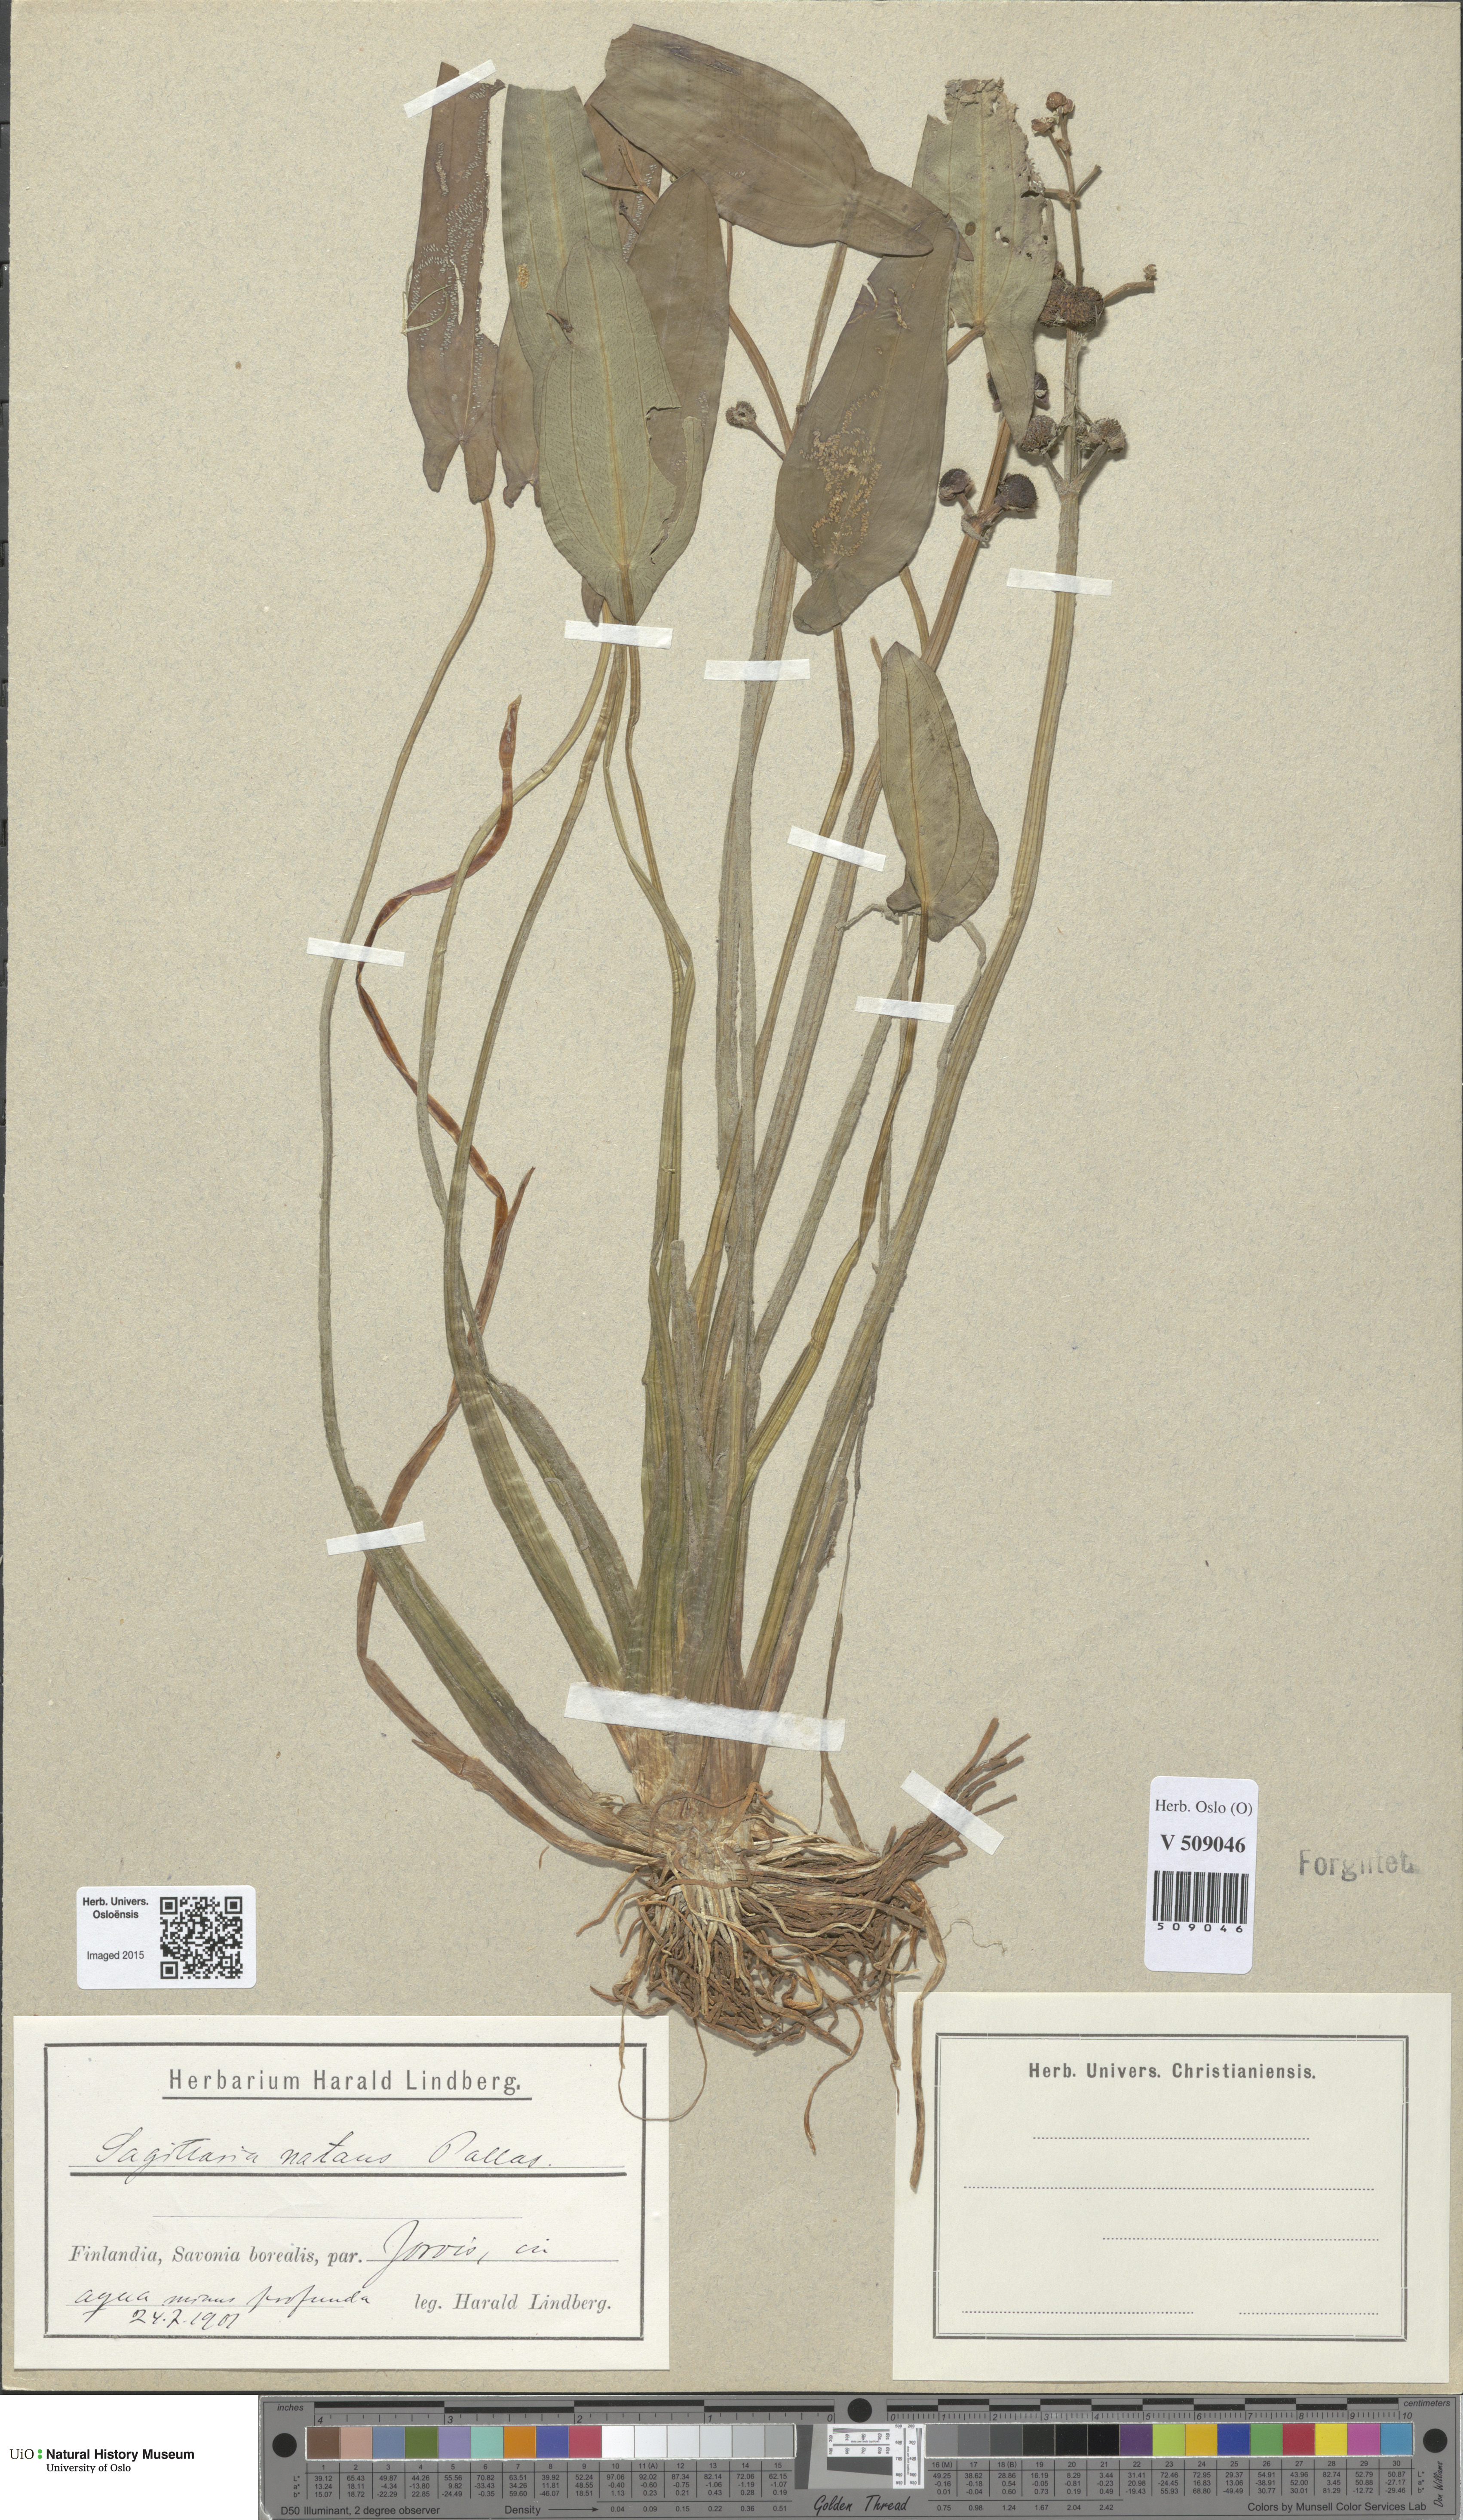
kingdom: Plantae
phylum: Tracheophyta
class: Liliopsida
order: Alismatales
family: Alismataceae
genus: Sagittaria
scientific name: Sagittaria natans
